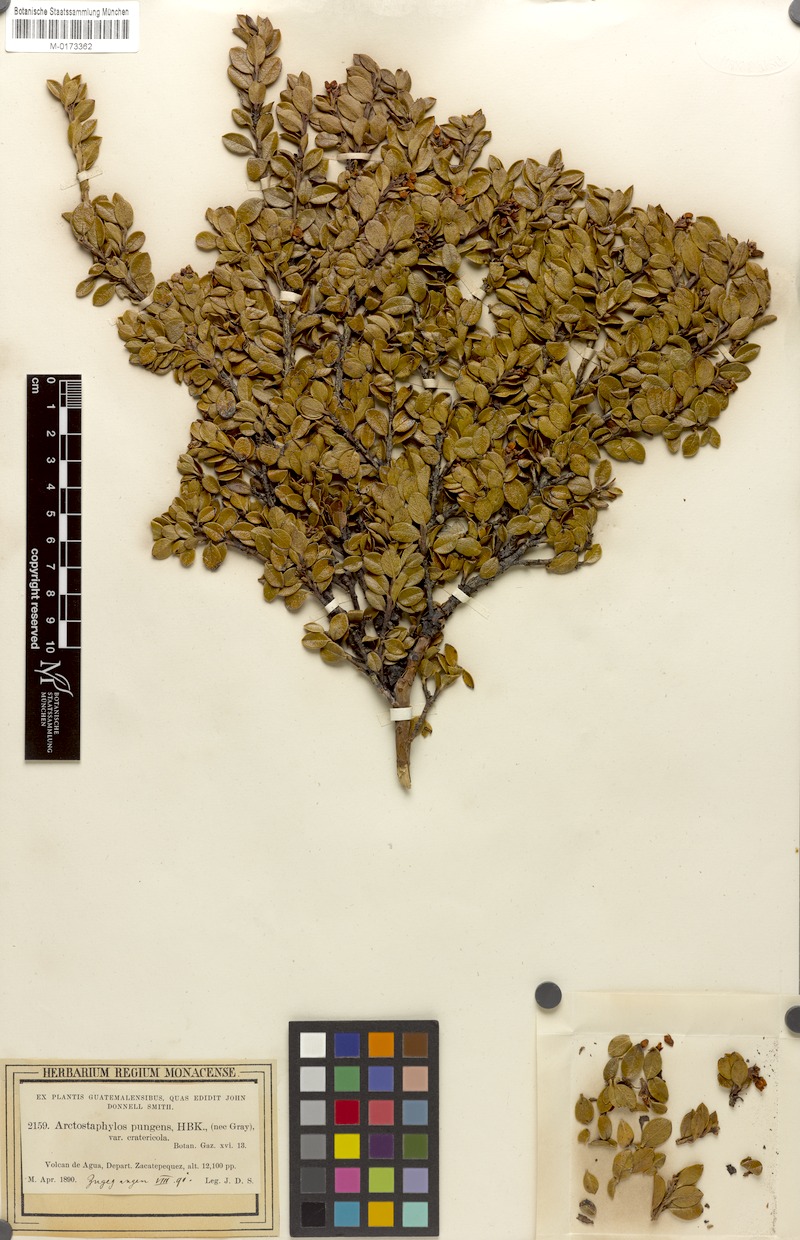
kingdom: Plantae
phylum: Tracheophyta
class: Magnoliopsida
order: Ericales
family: Ericaceae
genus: Arctostaphylos
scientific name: Arctostaphylos cratericola
